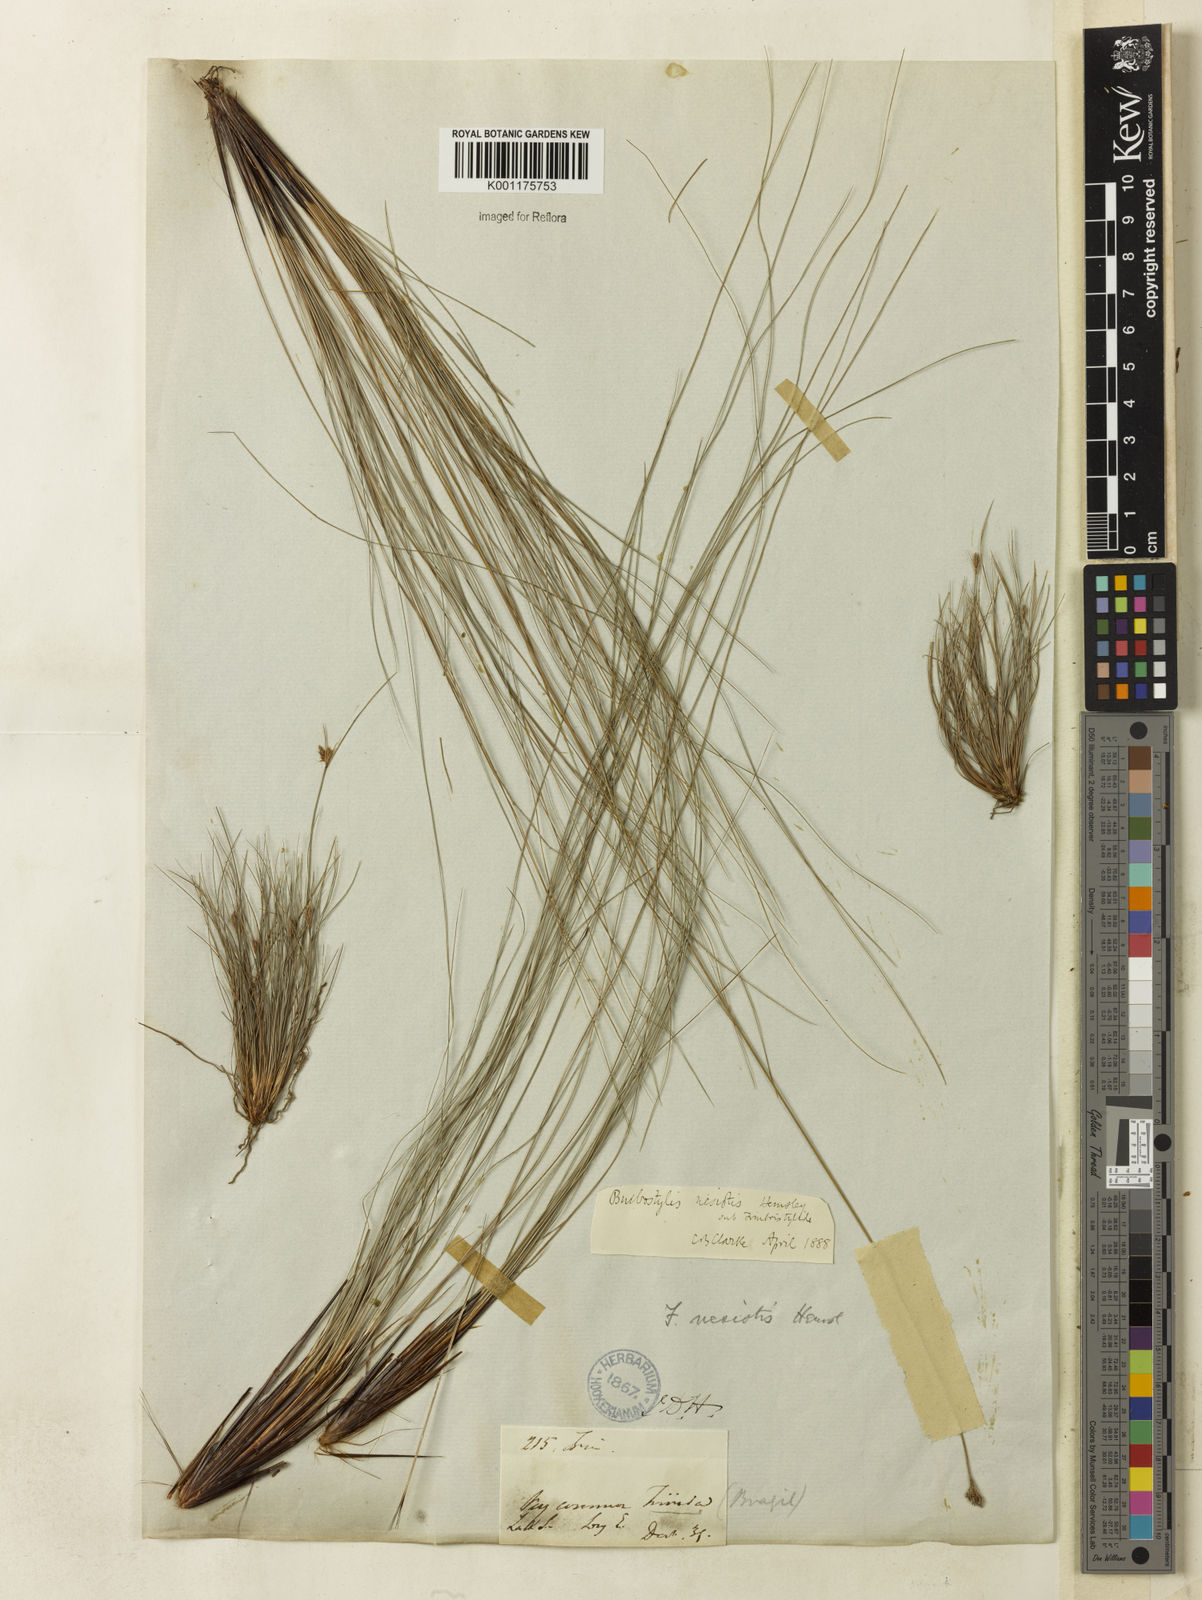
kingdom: Plantae
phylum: Tracheophyta
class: Liliopsida
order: Poales
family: Cyperaceae
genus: Bulbostylis
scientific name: Bulbostylis nesiotis
